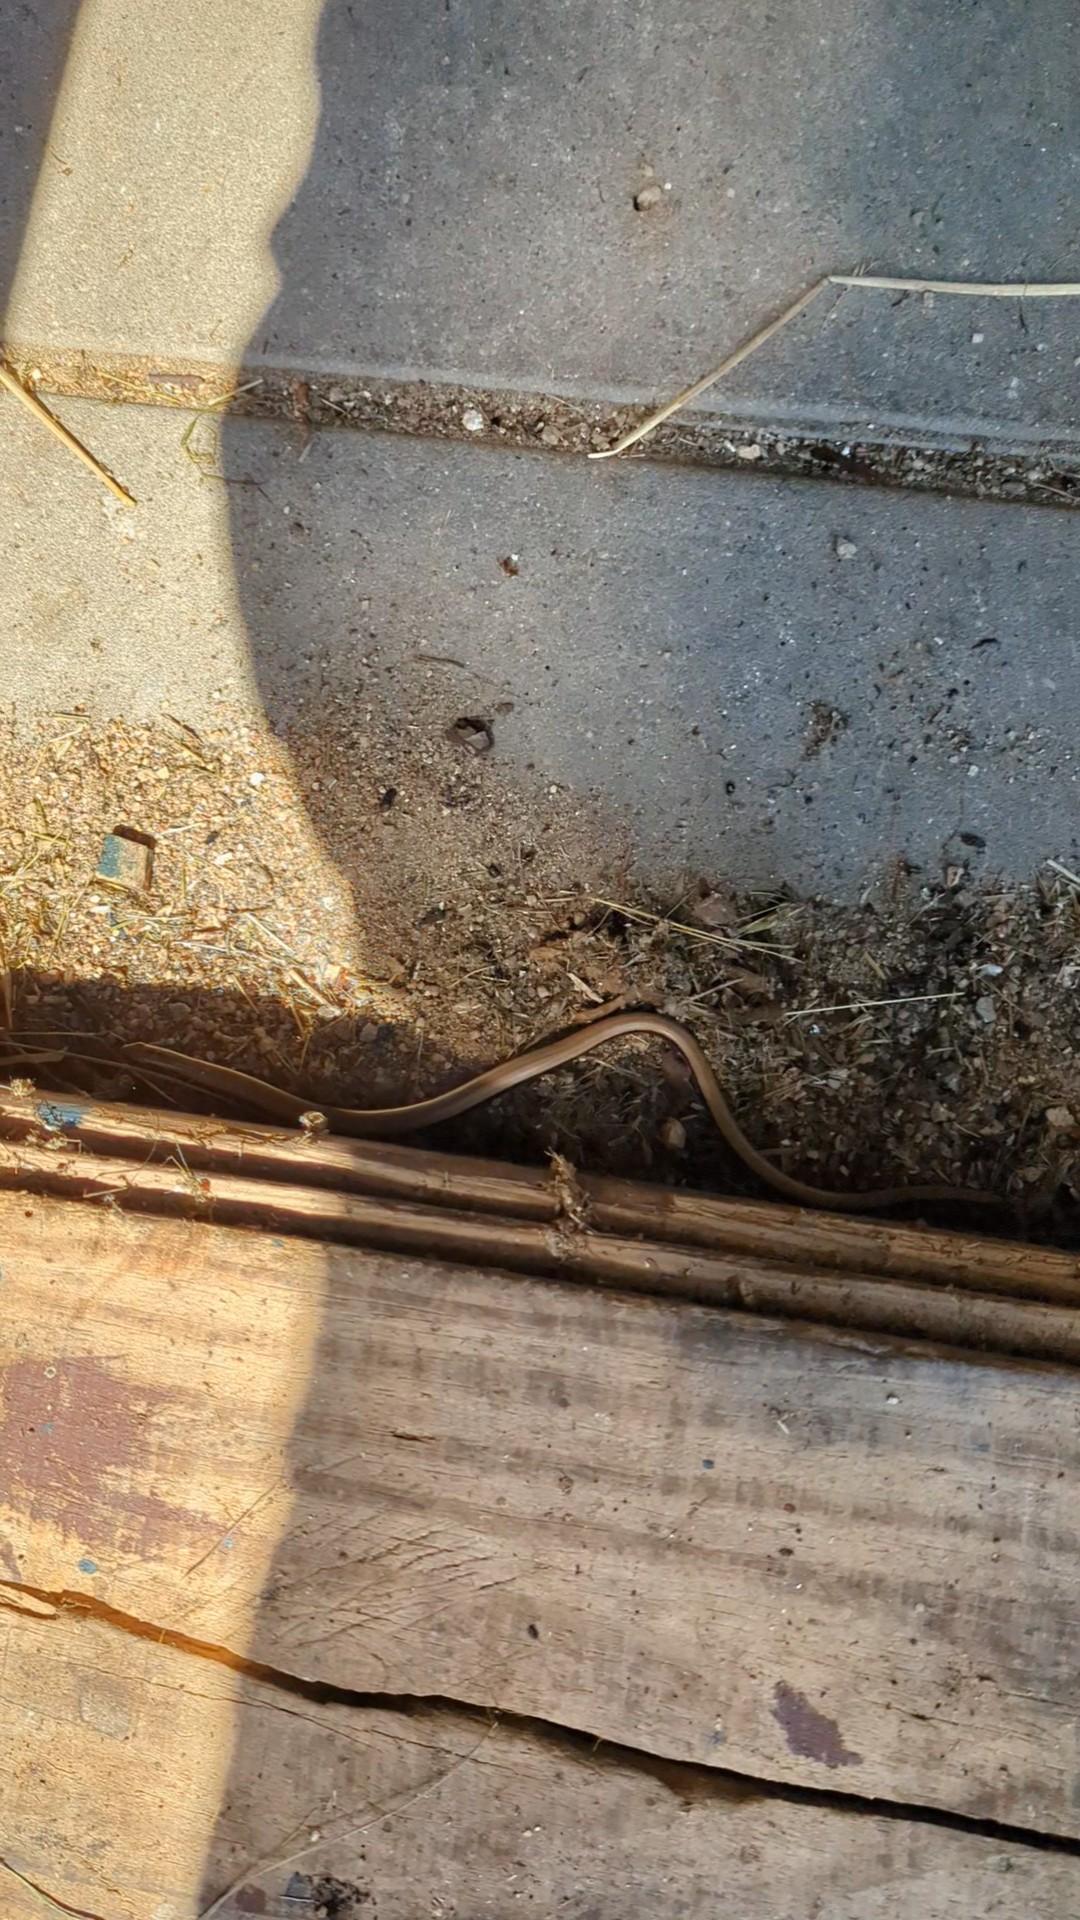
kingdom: Animalia
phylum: Chordata
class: Squamata
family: Anguidae
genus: Anguis
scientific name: Anguis fragilis
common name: Stålorm
